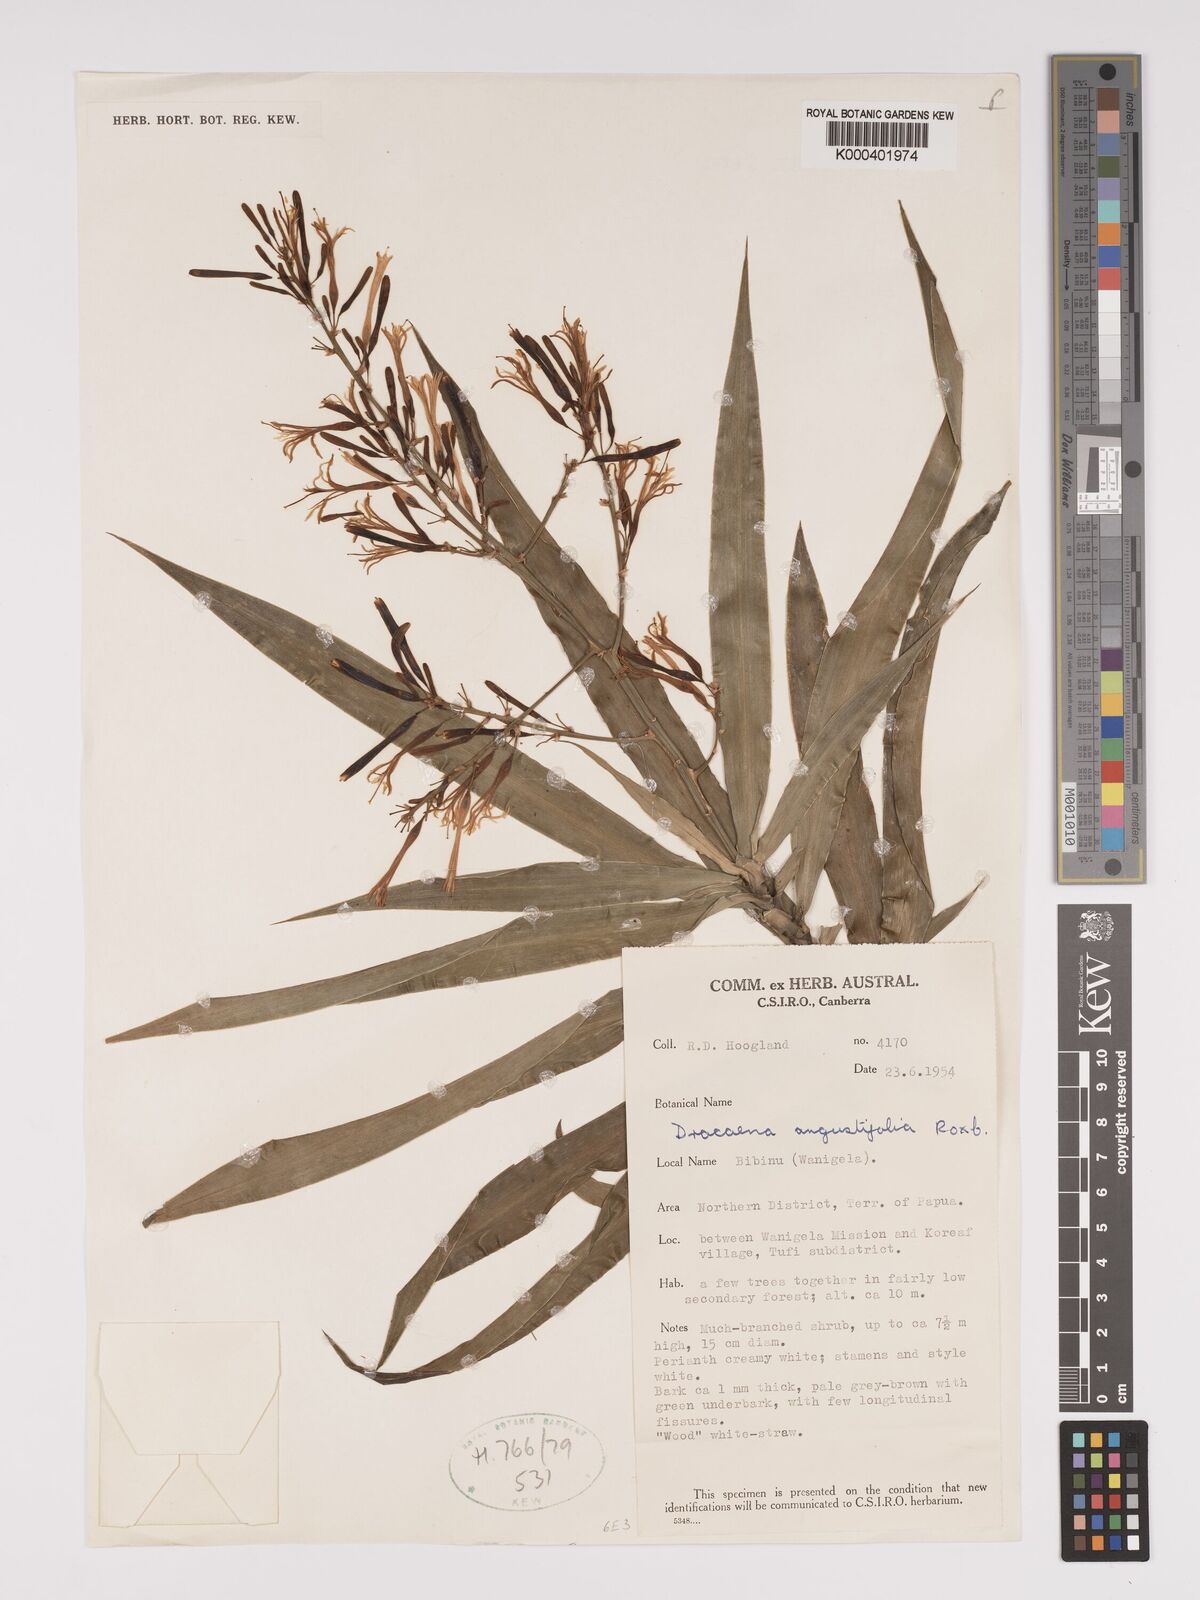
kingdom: Plantae
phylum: Tracheophyta
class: Liliopsida
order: Asparagales
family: Asparagaceae
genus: Dracaena
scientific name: Dracaena angustifolia
